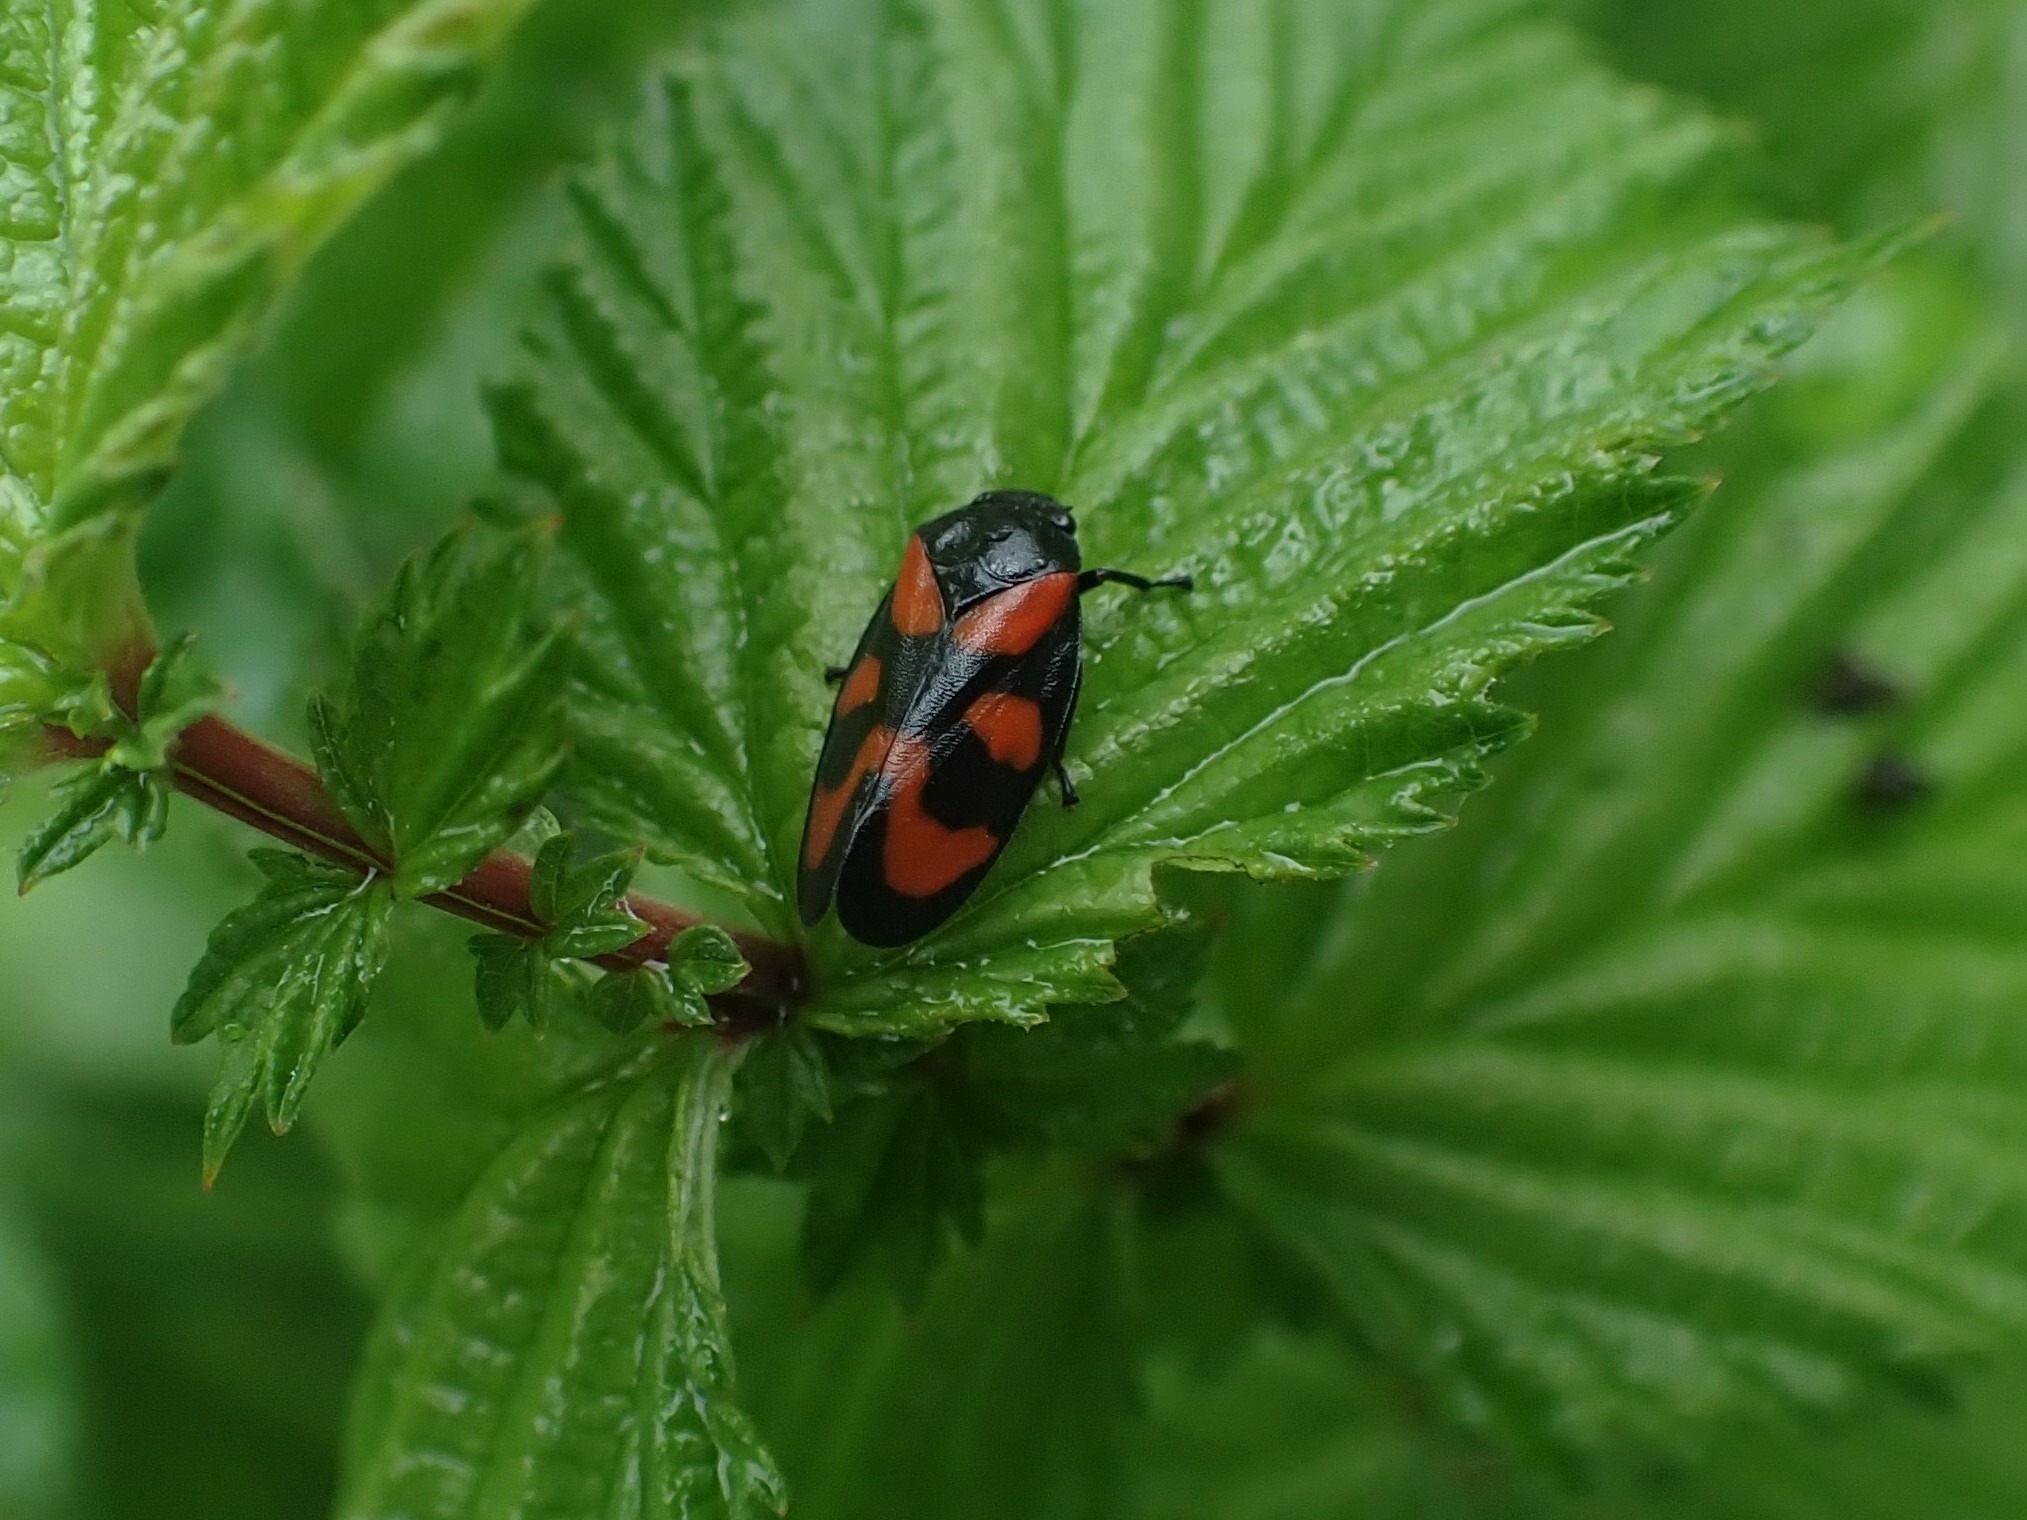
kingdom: Animalia
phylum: Arthropoda
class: Insecta
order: Hemiptera
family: Cercopidae
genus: Cercopis
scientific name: Cercopis vulnerata
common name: Blodcikade
